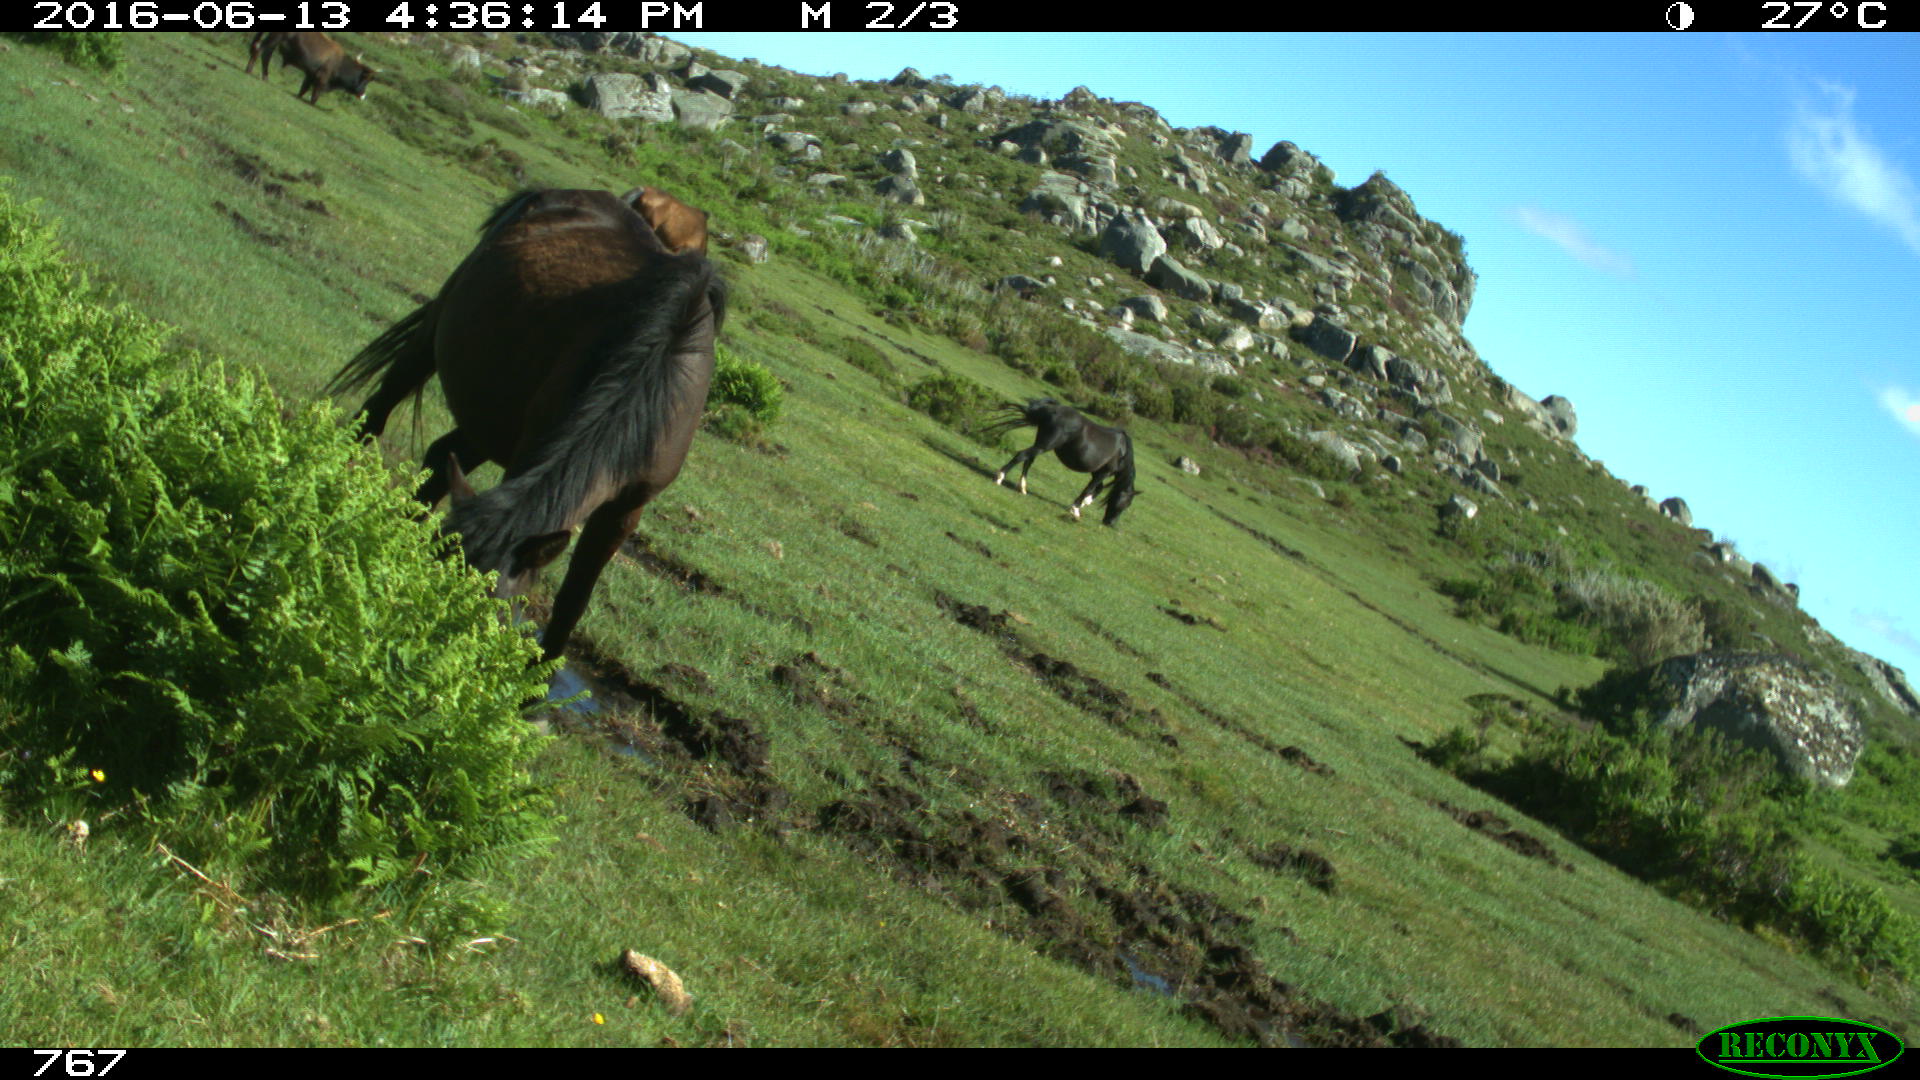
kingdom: Animalia
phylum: Chordata
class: Mammalia
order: Artiodactyla
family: Bovidae
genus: Bos
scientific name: Bos taurus
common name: Domesticated cattle
